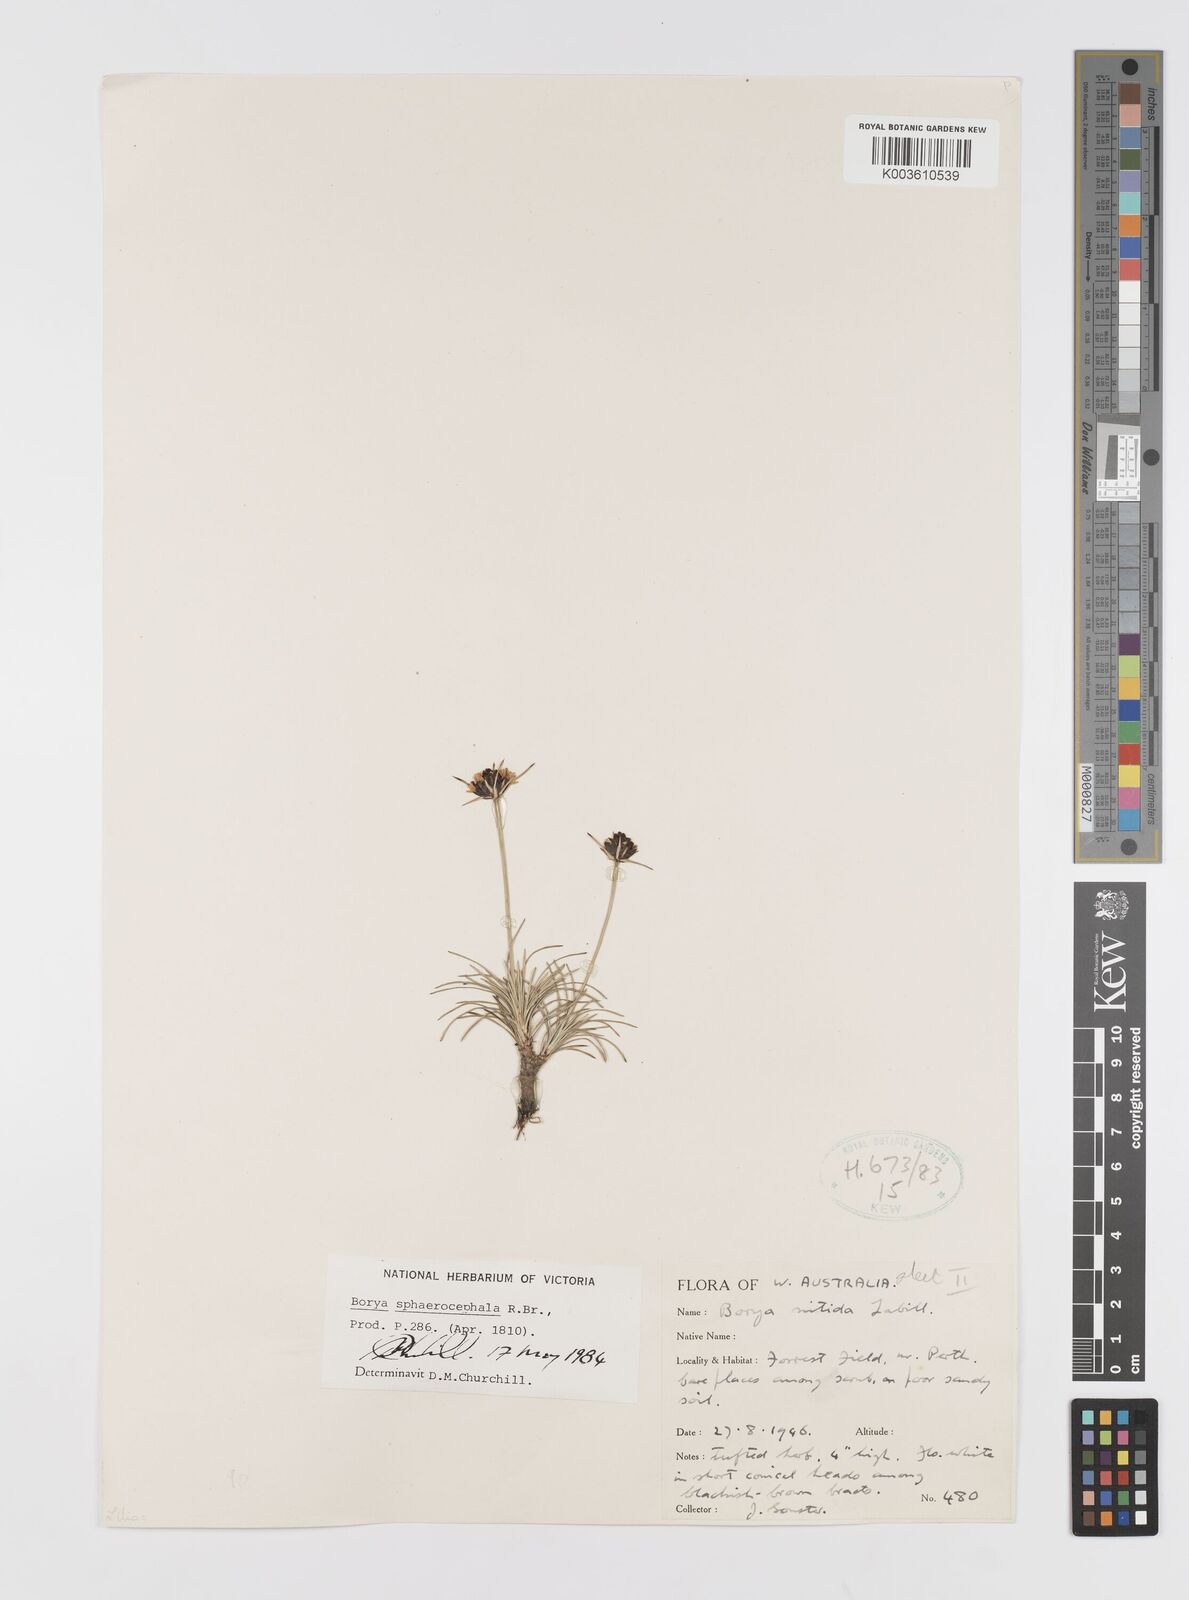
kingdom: Plantae
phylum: Tracheophyta
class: Liliopsida
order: Asparagales
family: Boryaceae
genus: Borya
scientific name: Borya sphaerocephala
